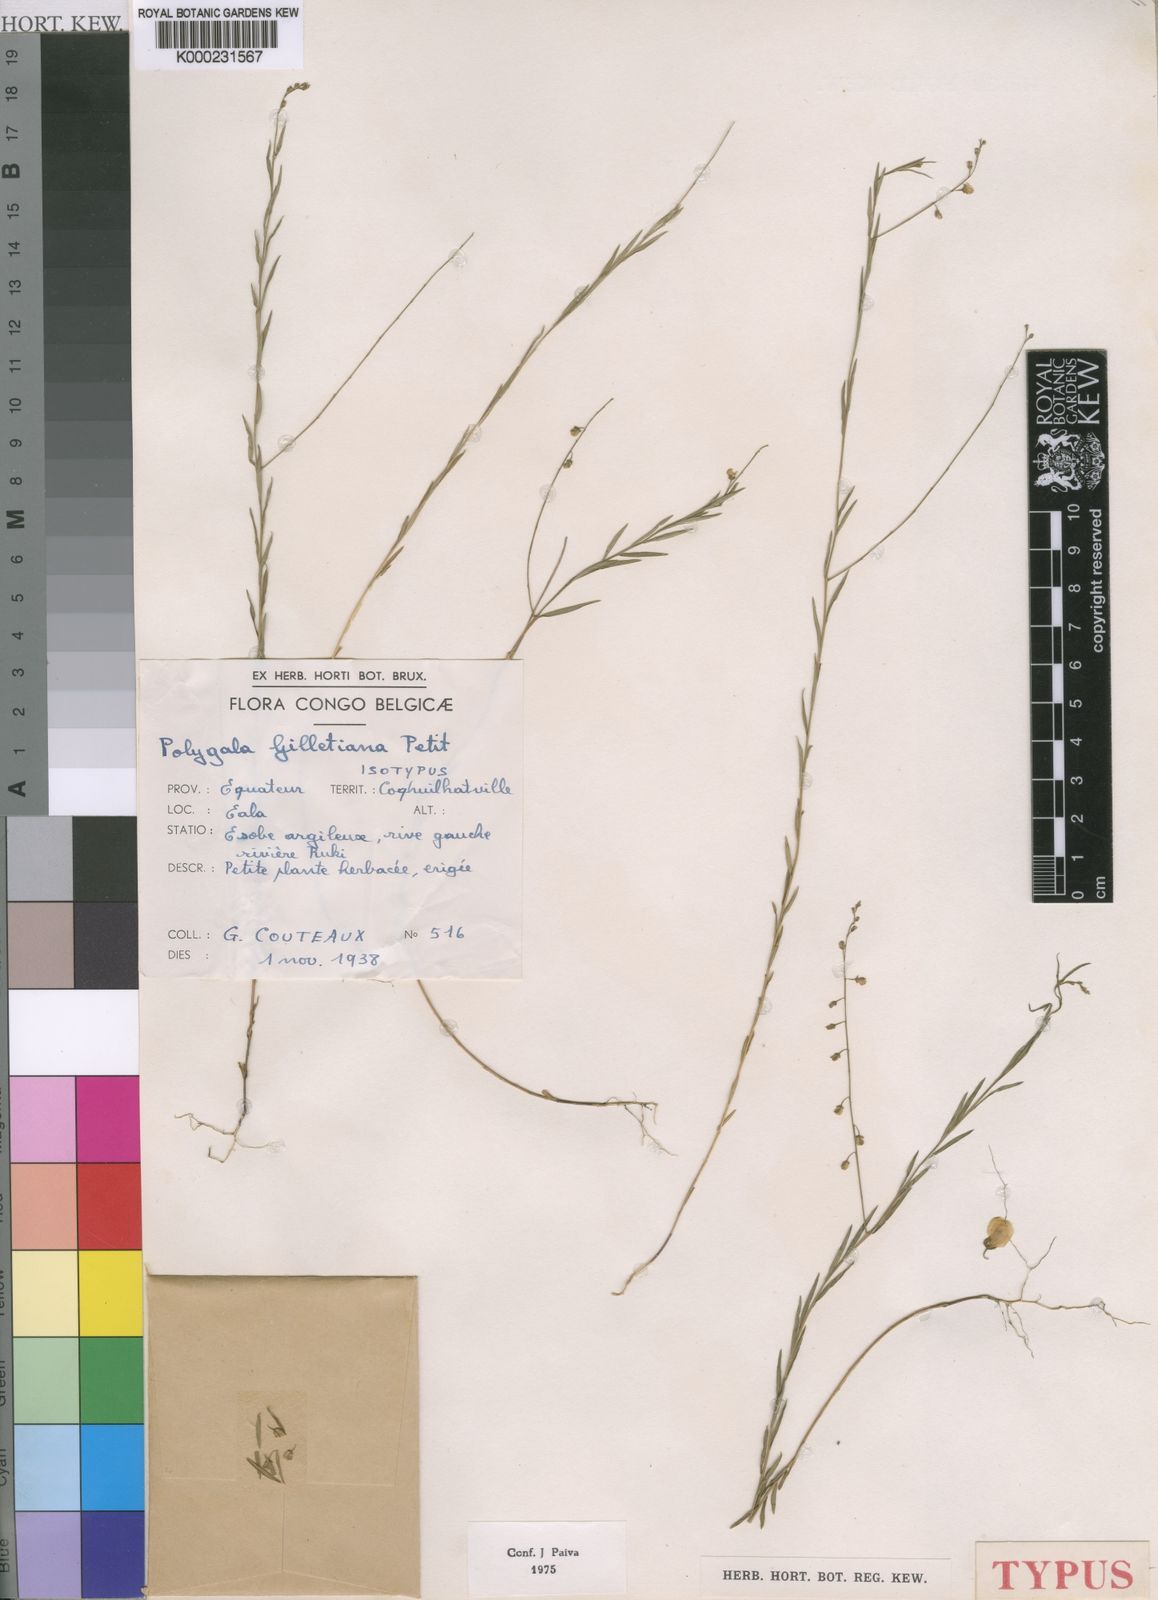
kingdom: Plantae
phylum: Tracheophyta
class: Magnoliopsida
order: Fabales
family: Polygalaceae
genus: Polygala
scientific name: Polygala gilletiana
